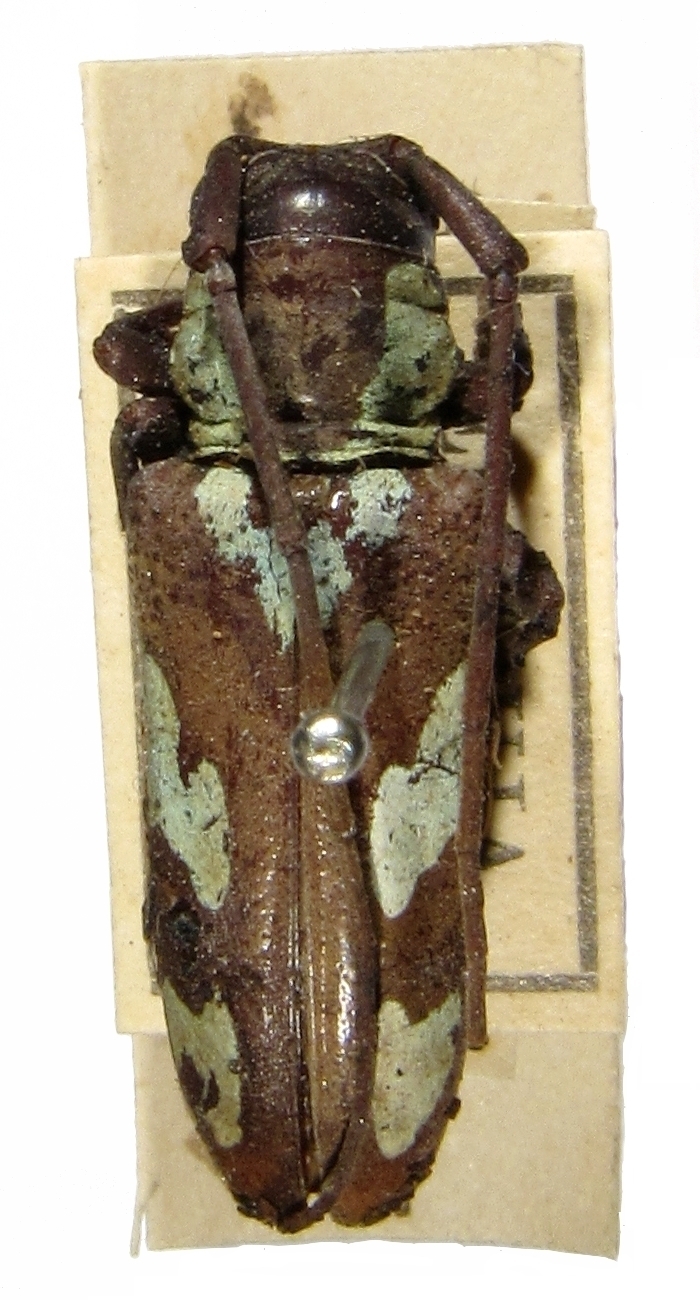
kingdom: Animalia
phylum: Arthropoda
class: Insecta
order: Coleoptera
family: Cerambycidae
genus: Prosopocera
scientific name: Prosopocera gahani
